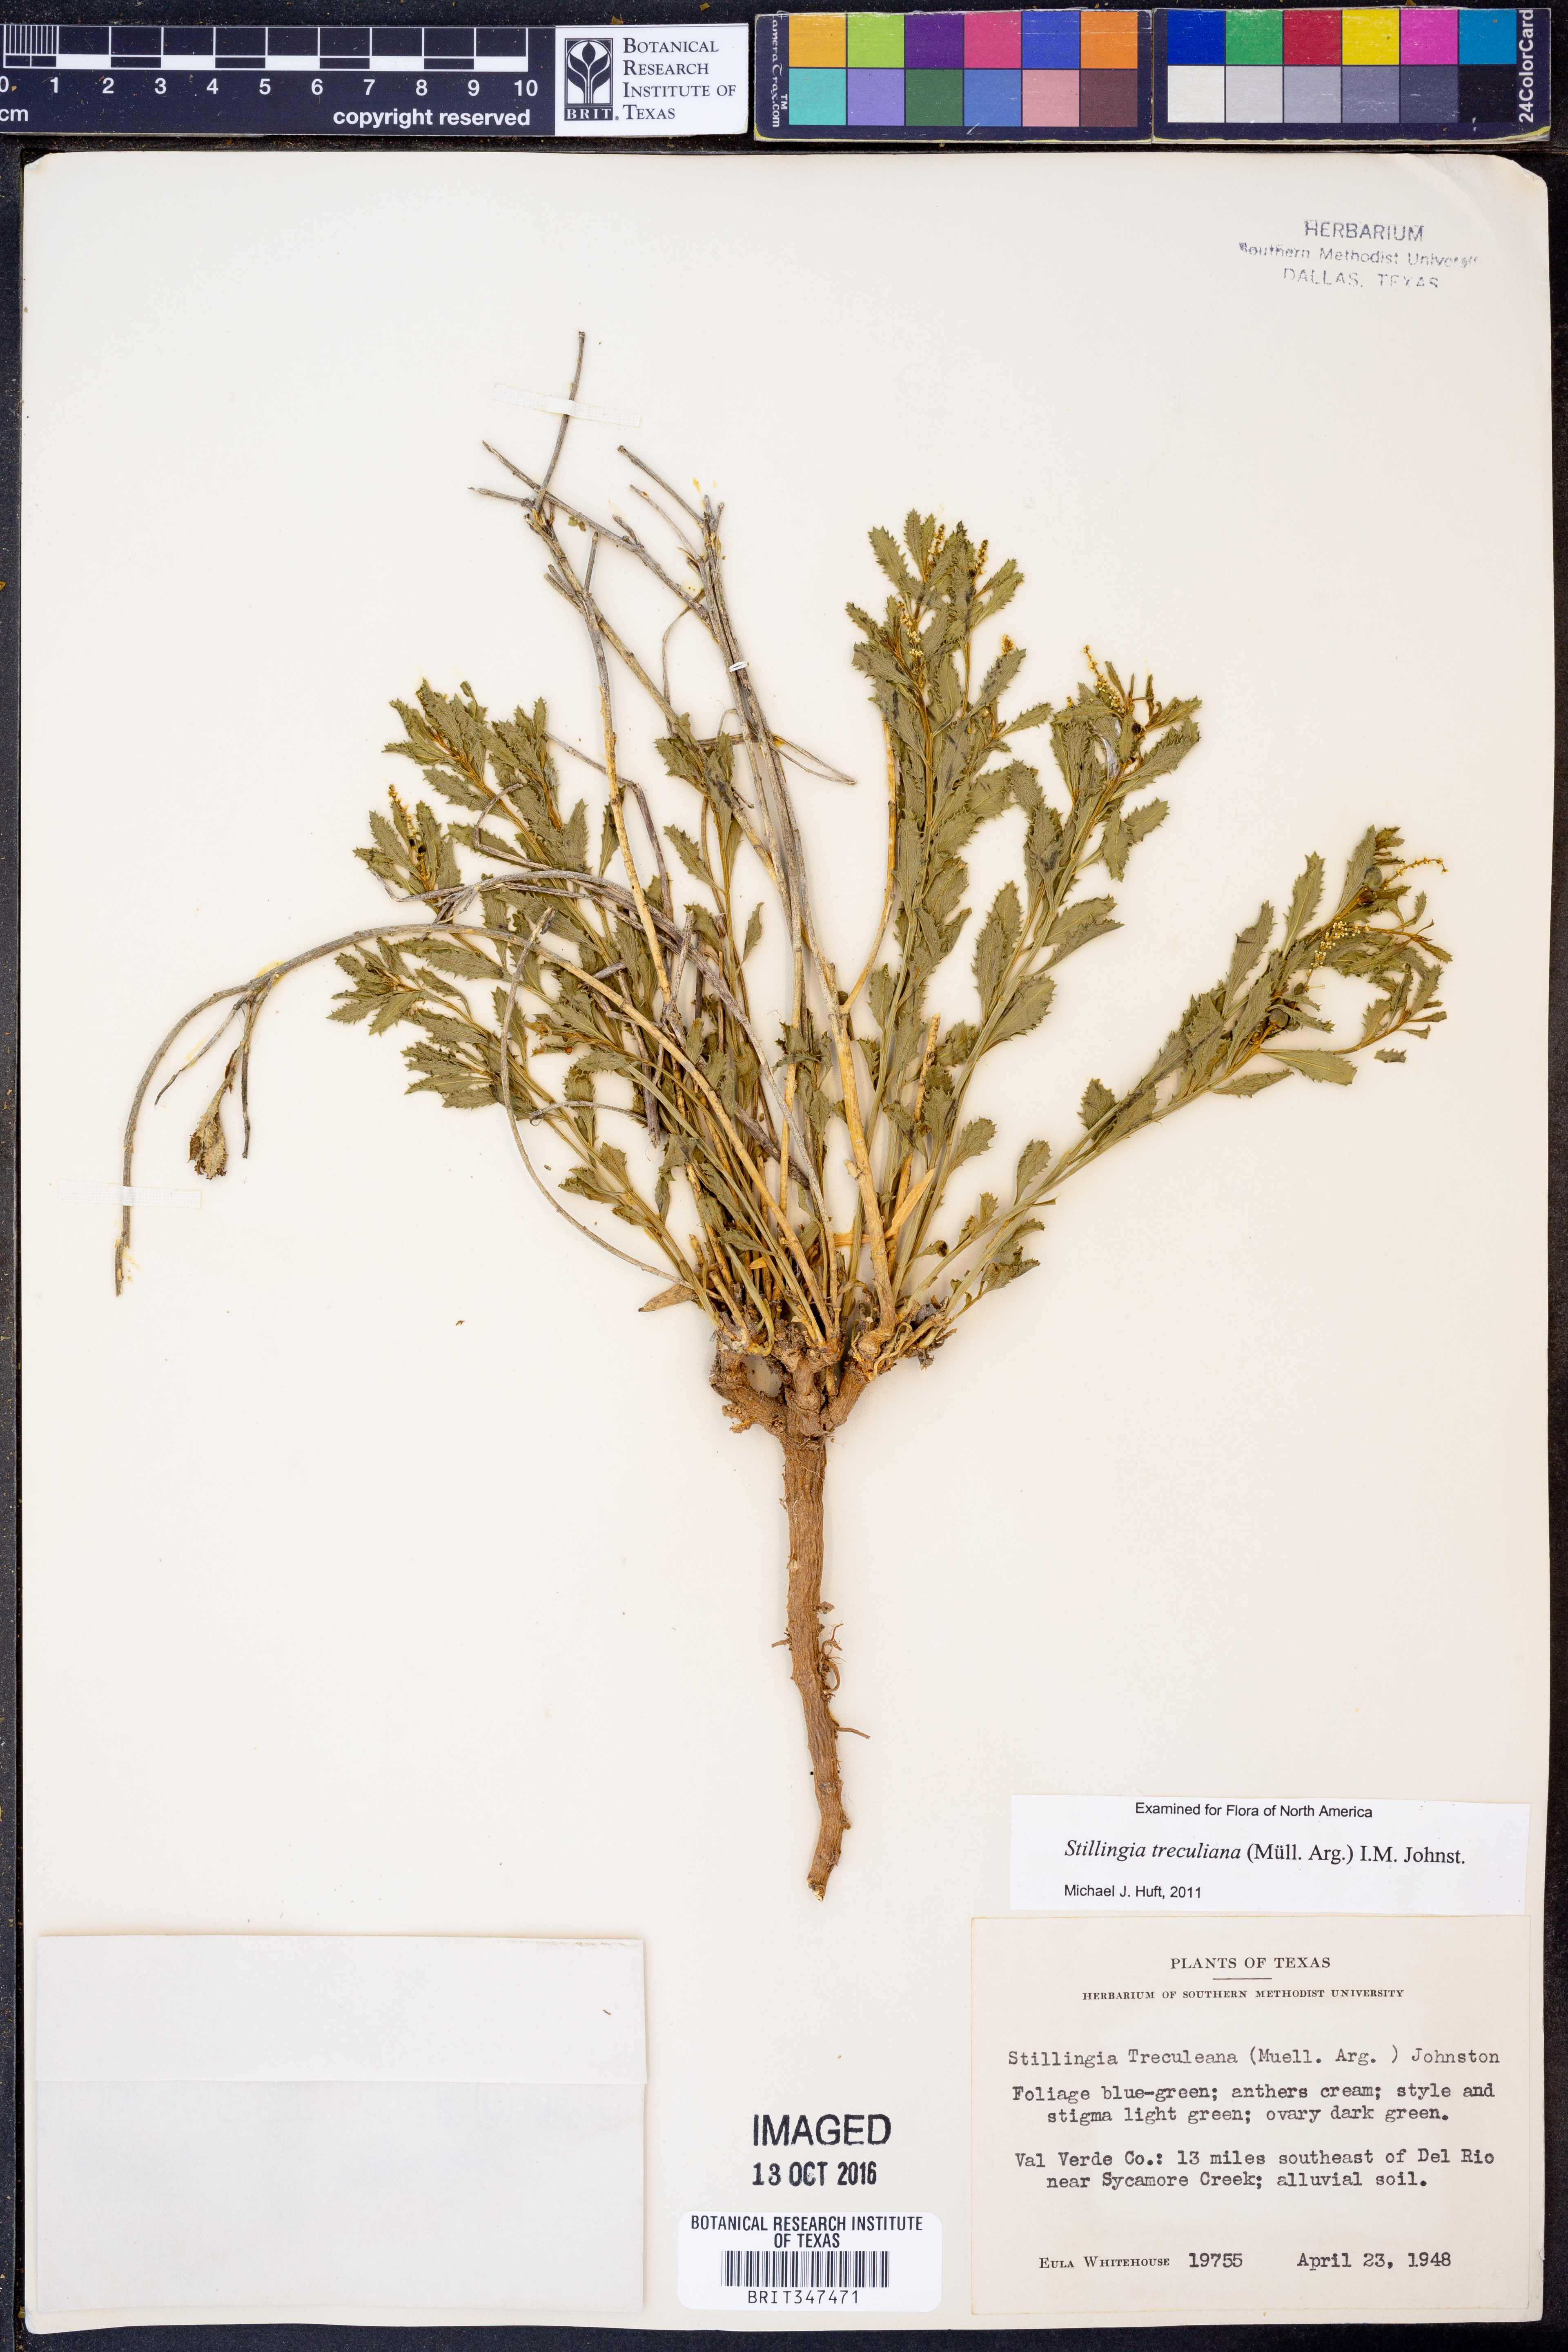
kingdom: Plantae
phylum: Tracheophyta
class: Magnoliopsida
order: Malpighiales
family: Euphorbiaceae
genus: Stillingia
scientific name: Stillingia treculiana
